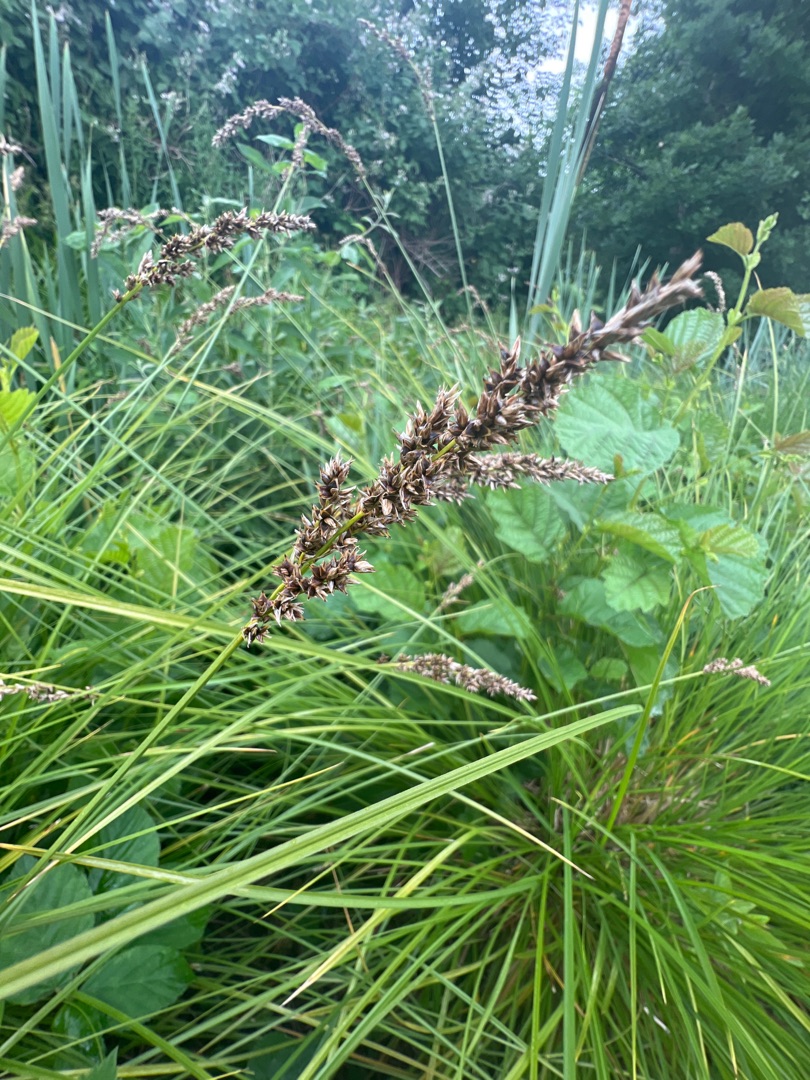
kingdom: Plantae
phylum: Tracheophyta
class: Liliopsida
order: Poales
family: Cyperaceae
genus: Carex
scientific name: Carex paniculata
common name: Top-star
